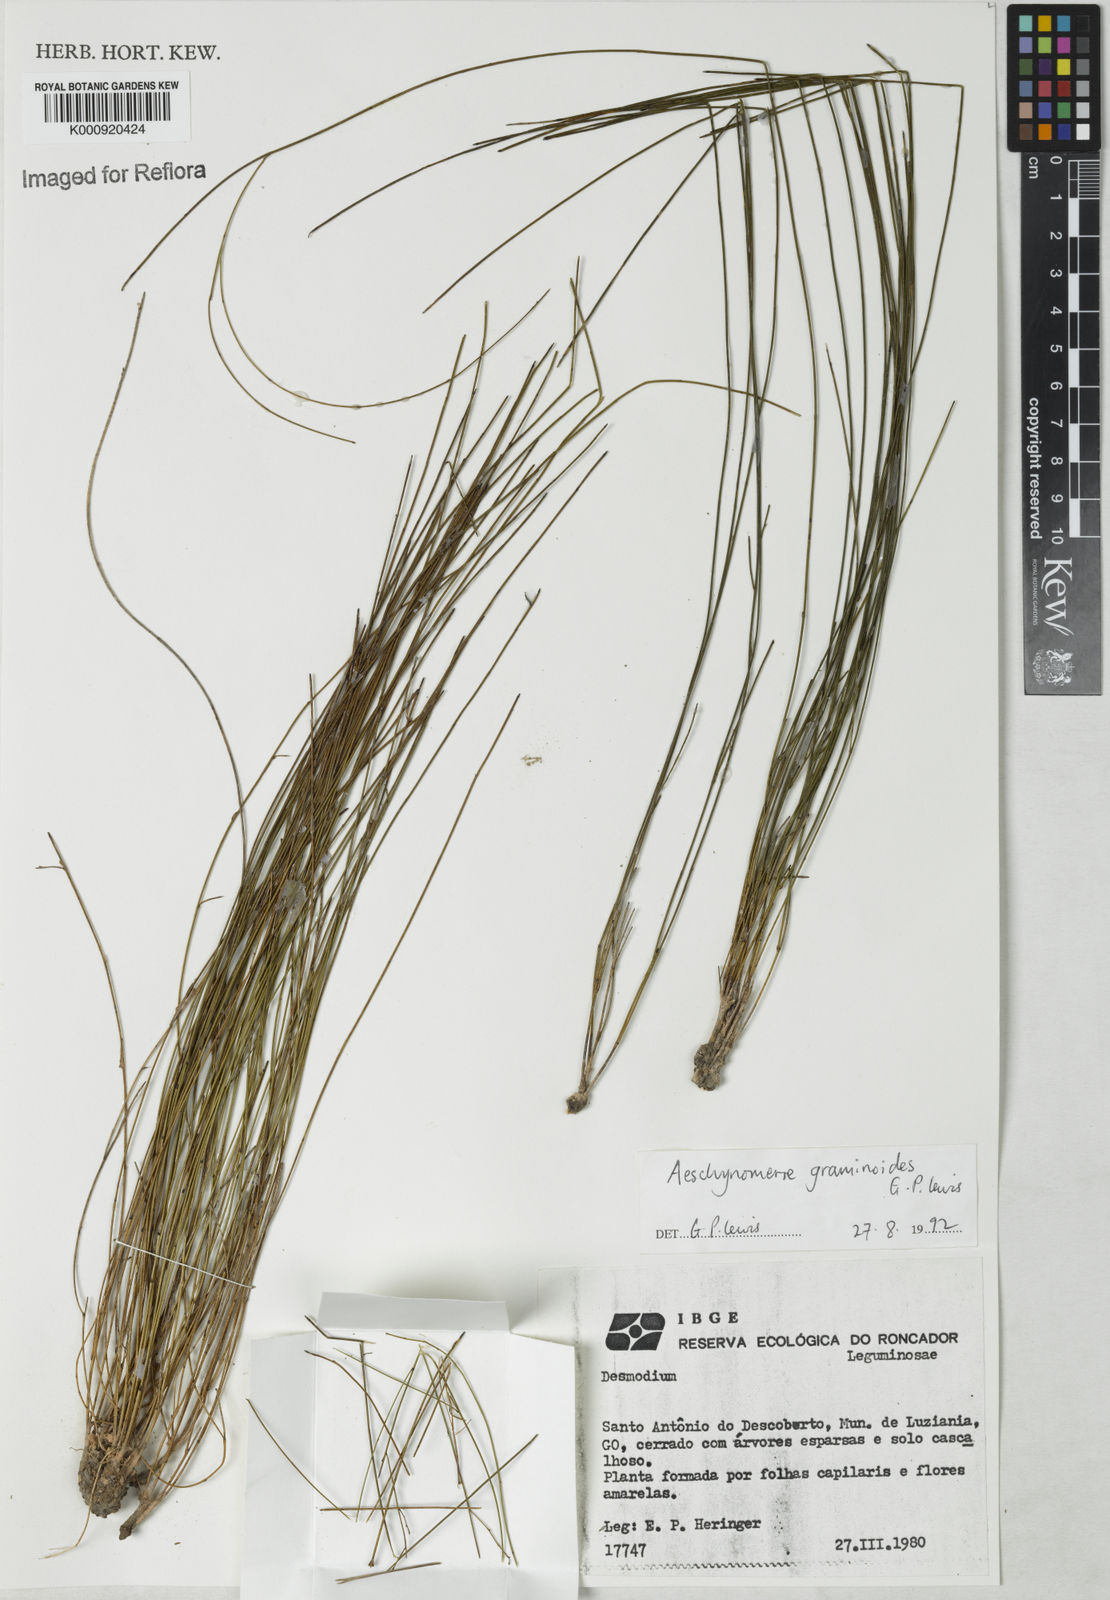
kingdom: Plantae
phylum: Tracheophyta
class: Magnoliopsida
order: Fabales
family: Fabaceae
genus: Ctenodon
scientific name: Ctenodon graminoides
